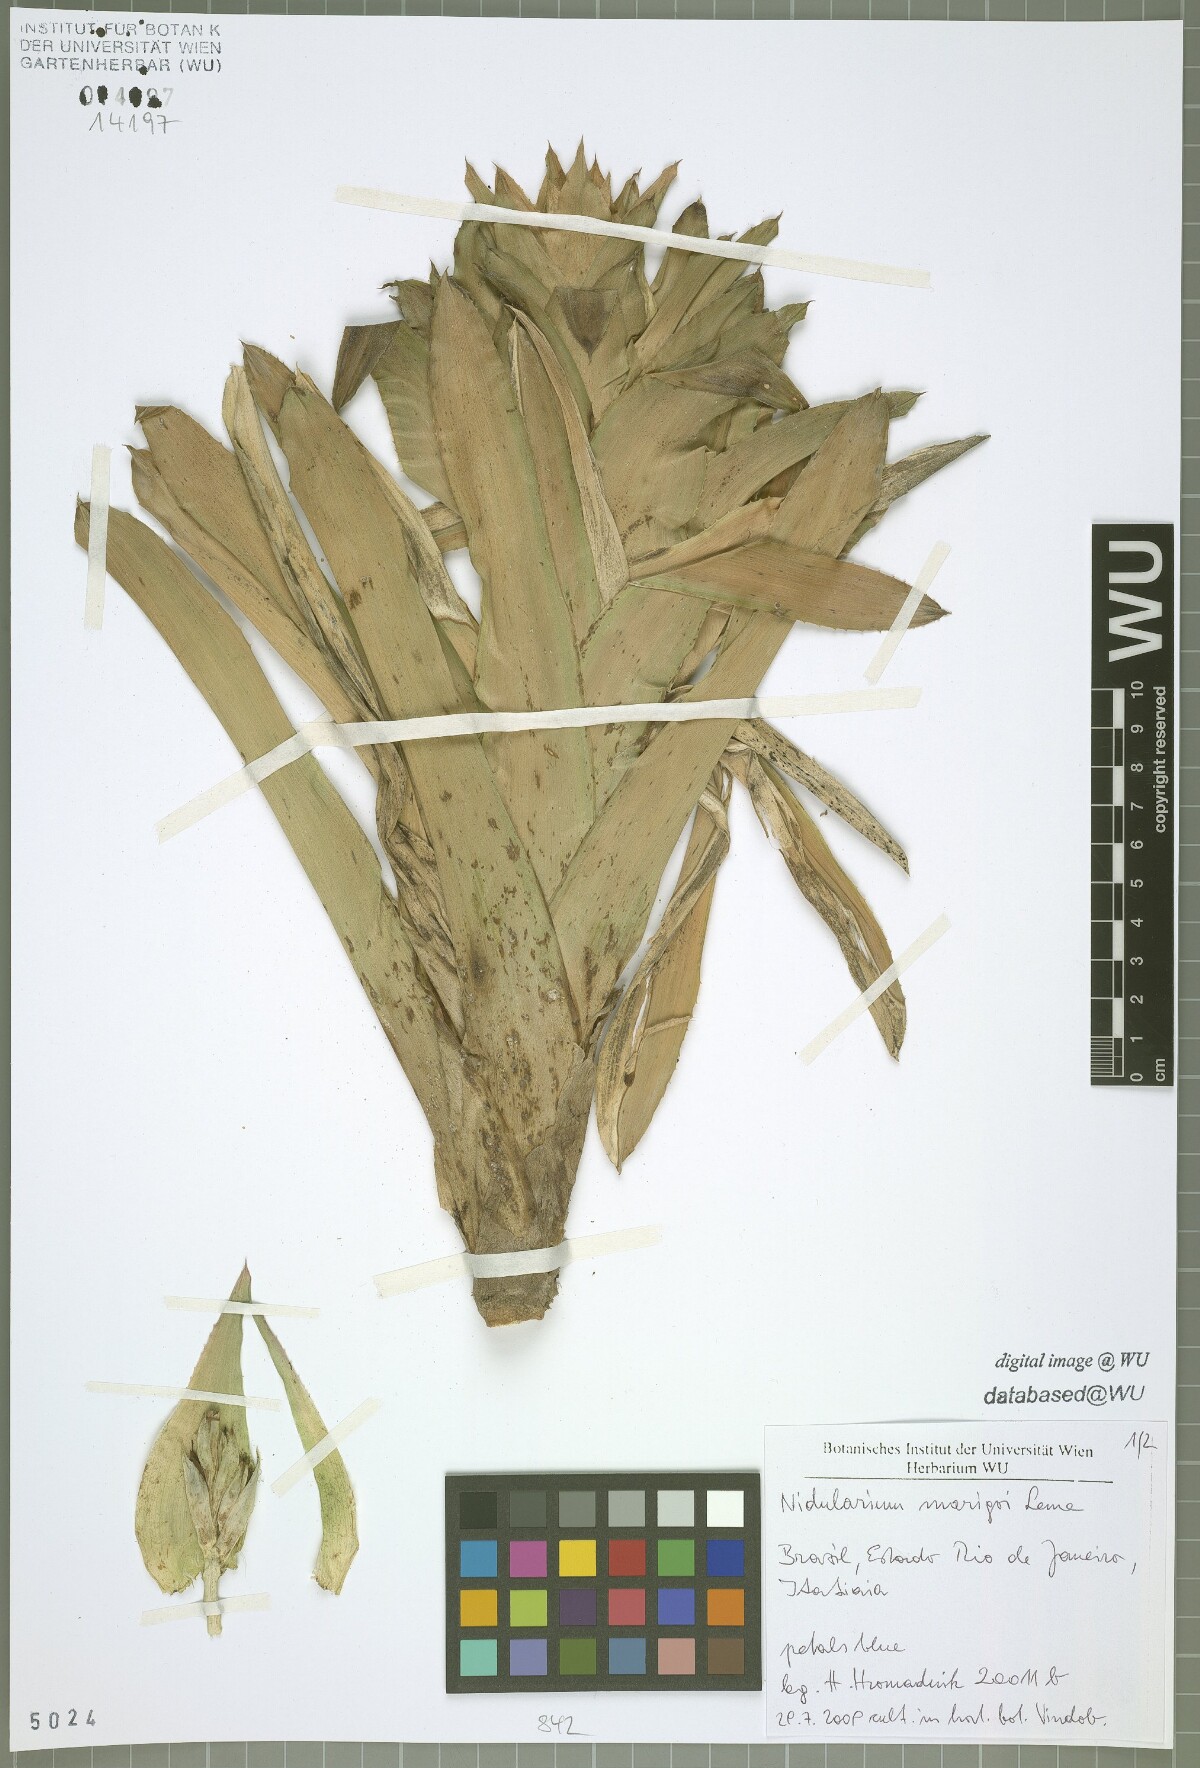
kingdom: Plantae
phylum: Tracheophyta
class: Liliopsida
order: Poales
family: Bromeliaceae
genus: Nidularium
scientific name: Nidularium marigoi
